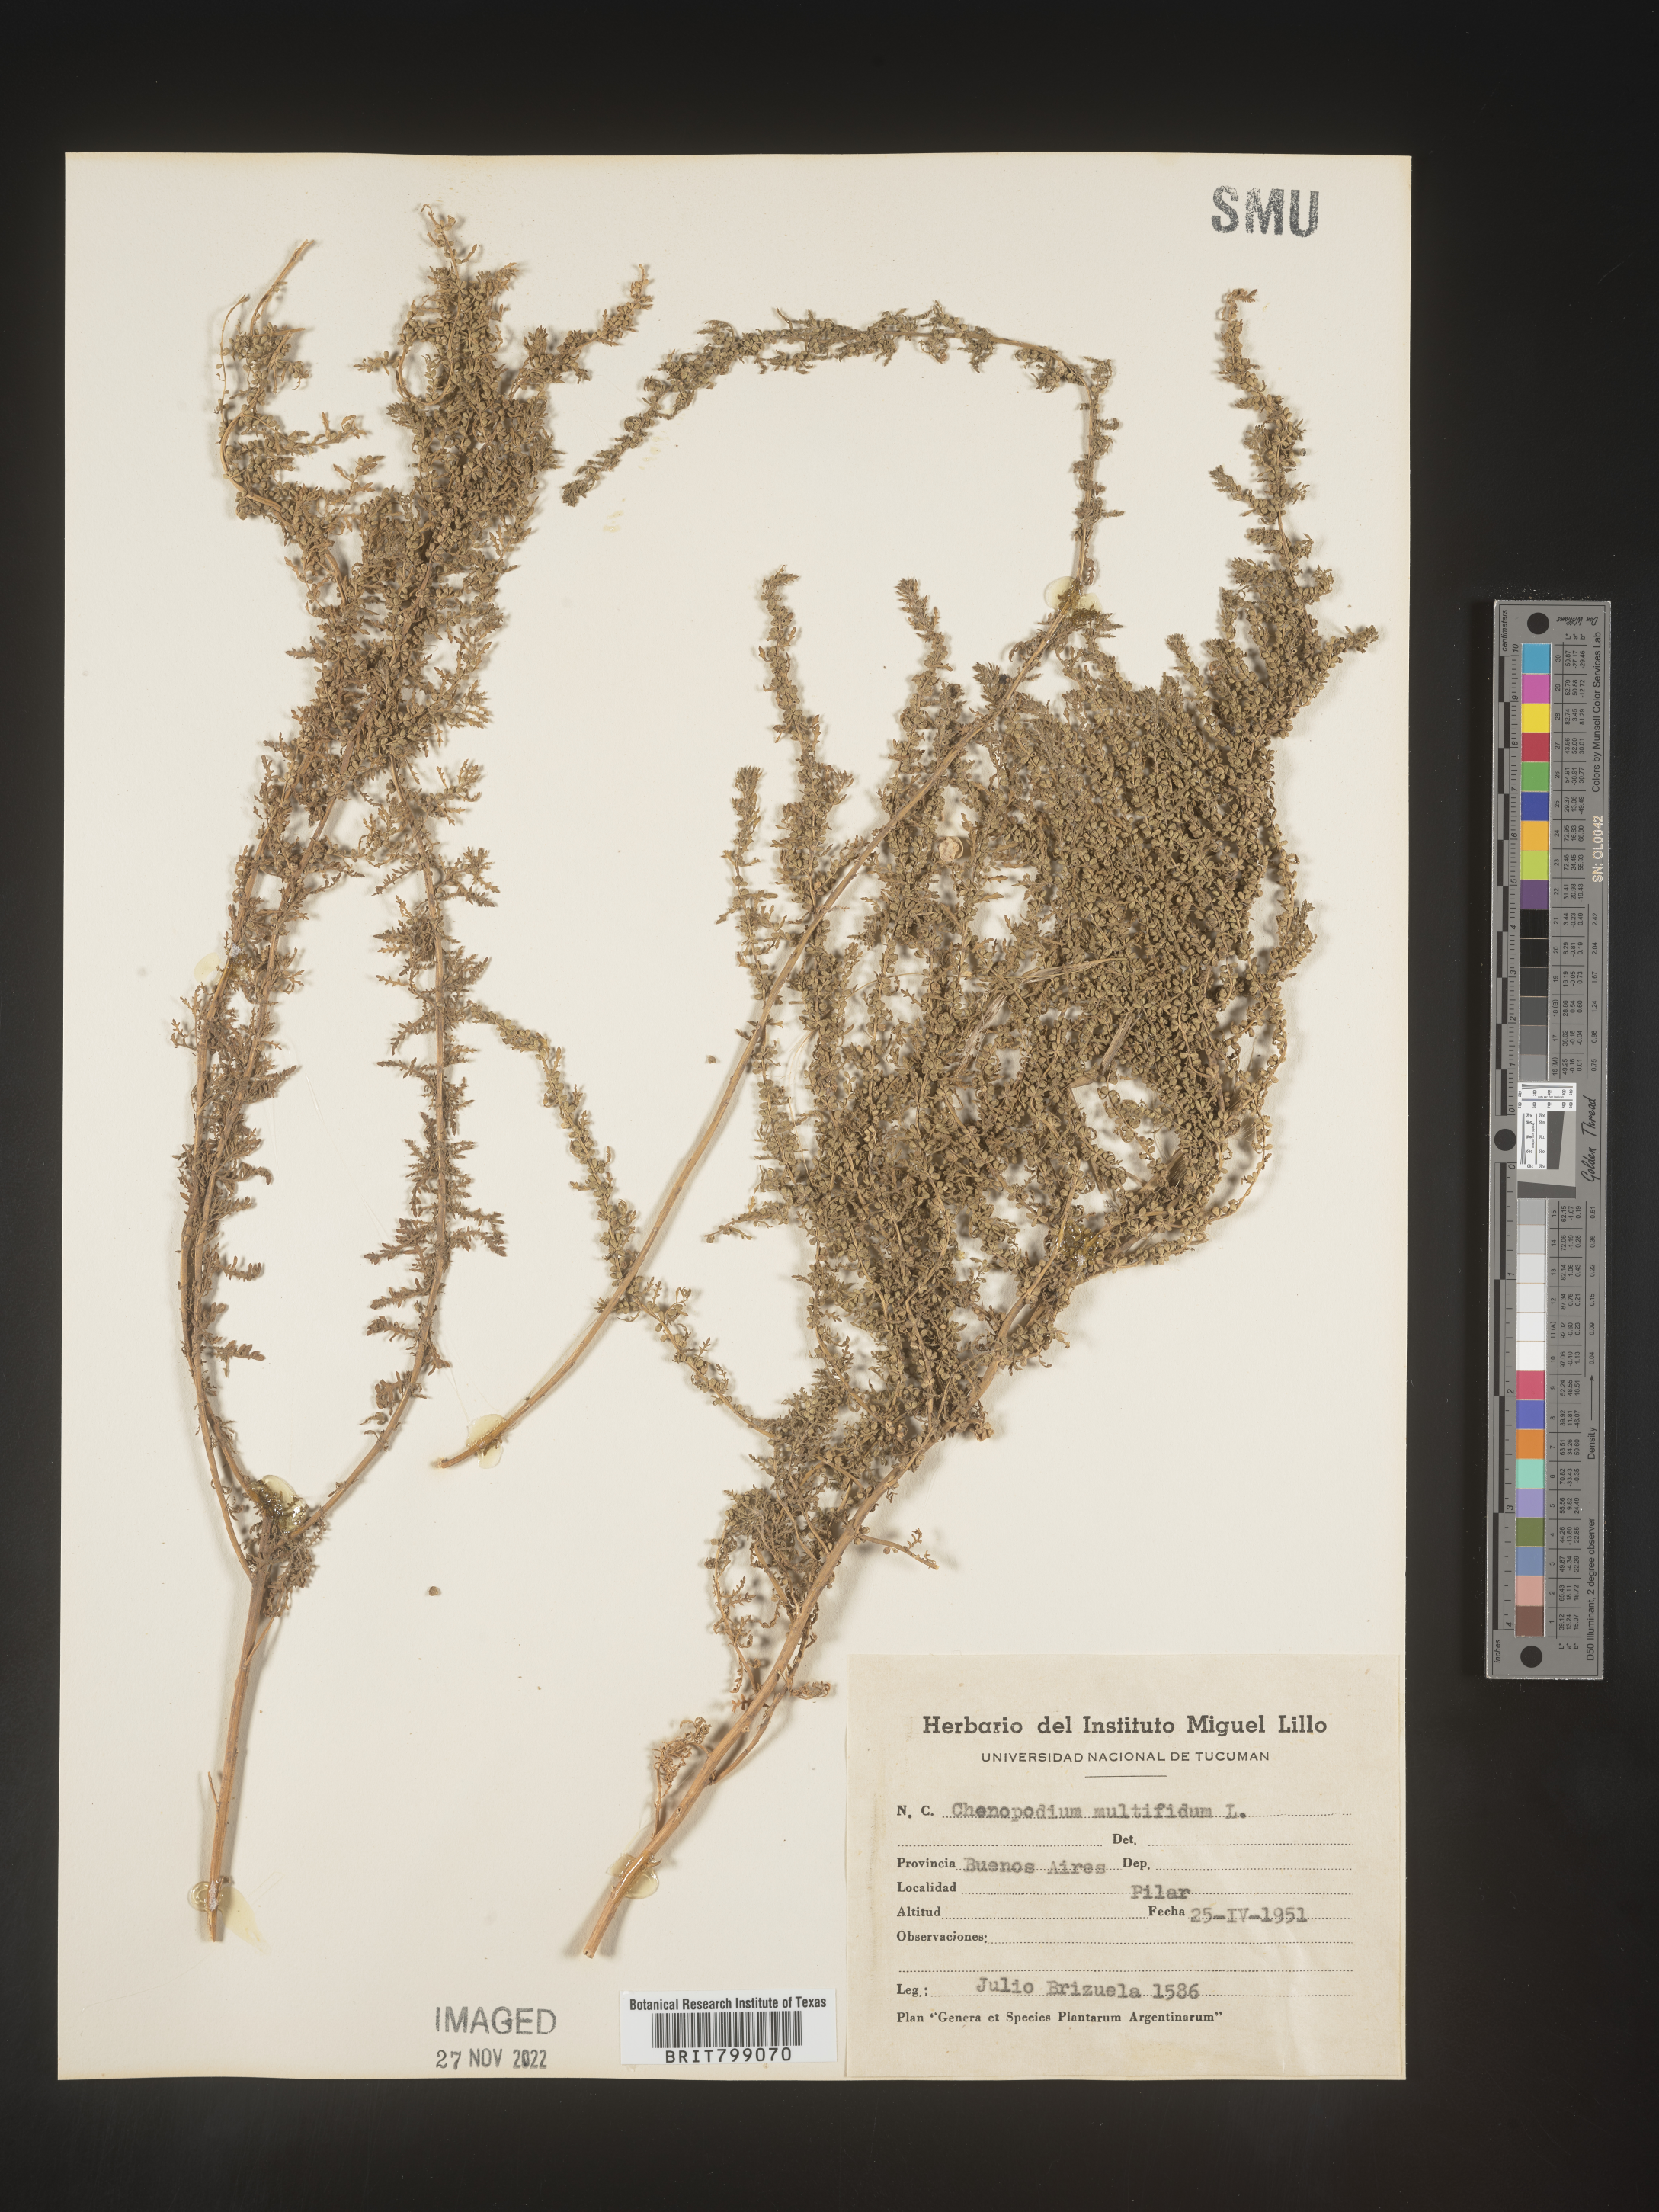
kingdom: Plantae
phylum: Tracheophyta
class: Magnoliopsida
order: Caryophyllales
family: Amaranthaceae
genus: Chenopodium
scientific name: Chenopodium
